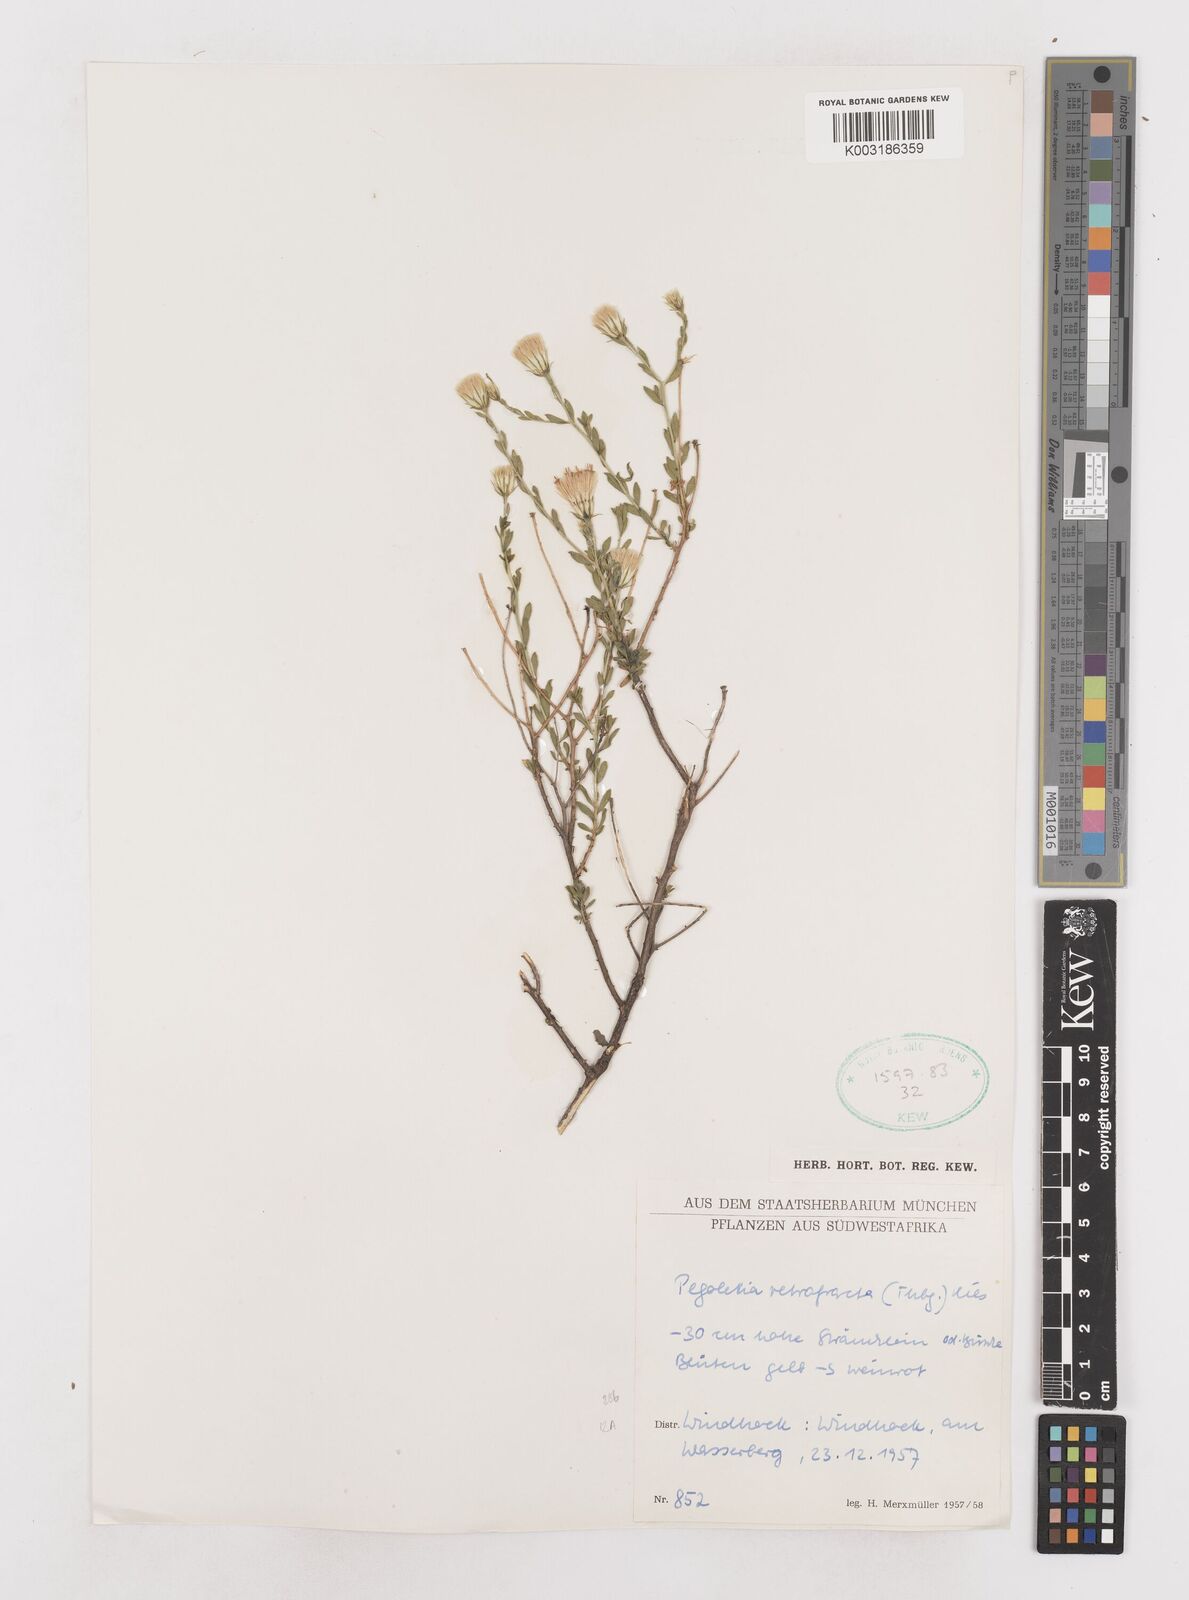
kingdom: Plantae
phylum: Tracheophyta
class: Magnoliopsida
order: Asterales
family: Asteraceae
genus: Pegolettia
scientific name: Pegolettia retrofracta
